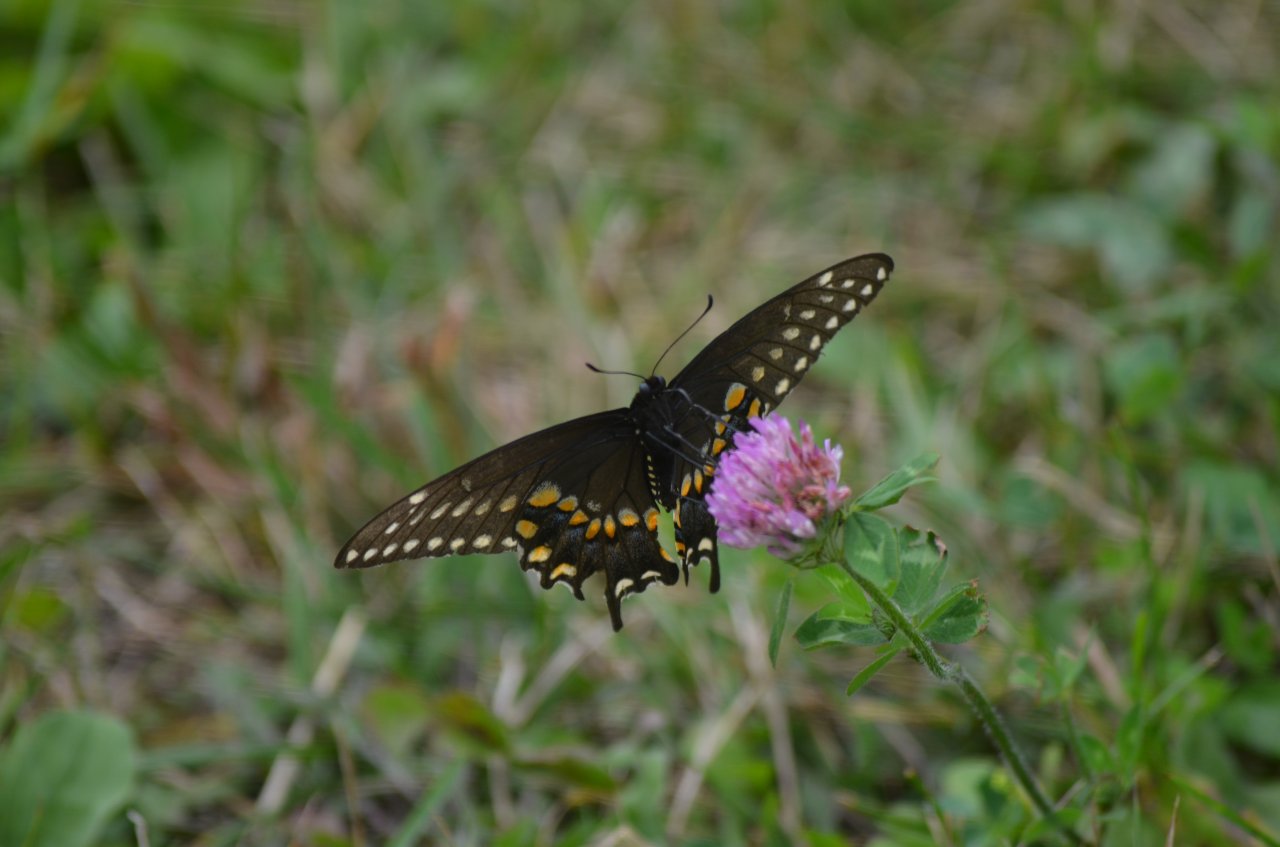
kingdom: Animalia
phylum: Arthropoda
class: Insecta
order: Lepidoptera
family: Papilionidae
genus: Papilio
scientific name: Papilio polyxenes
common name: Black Swallowtail
